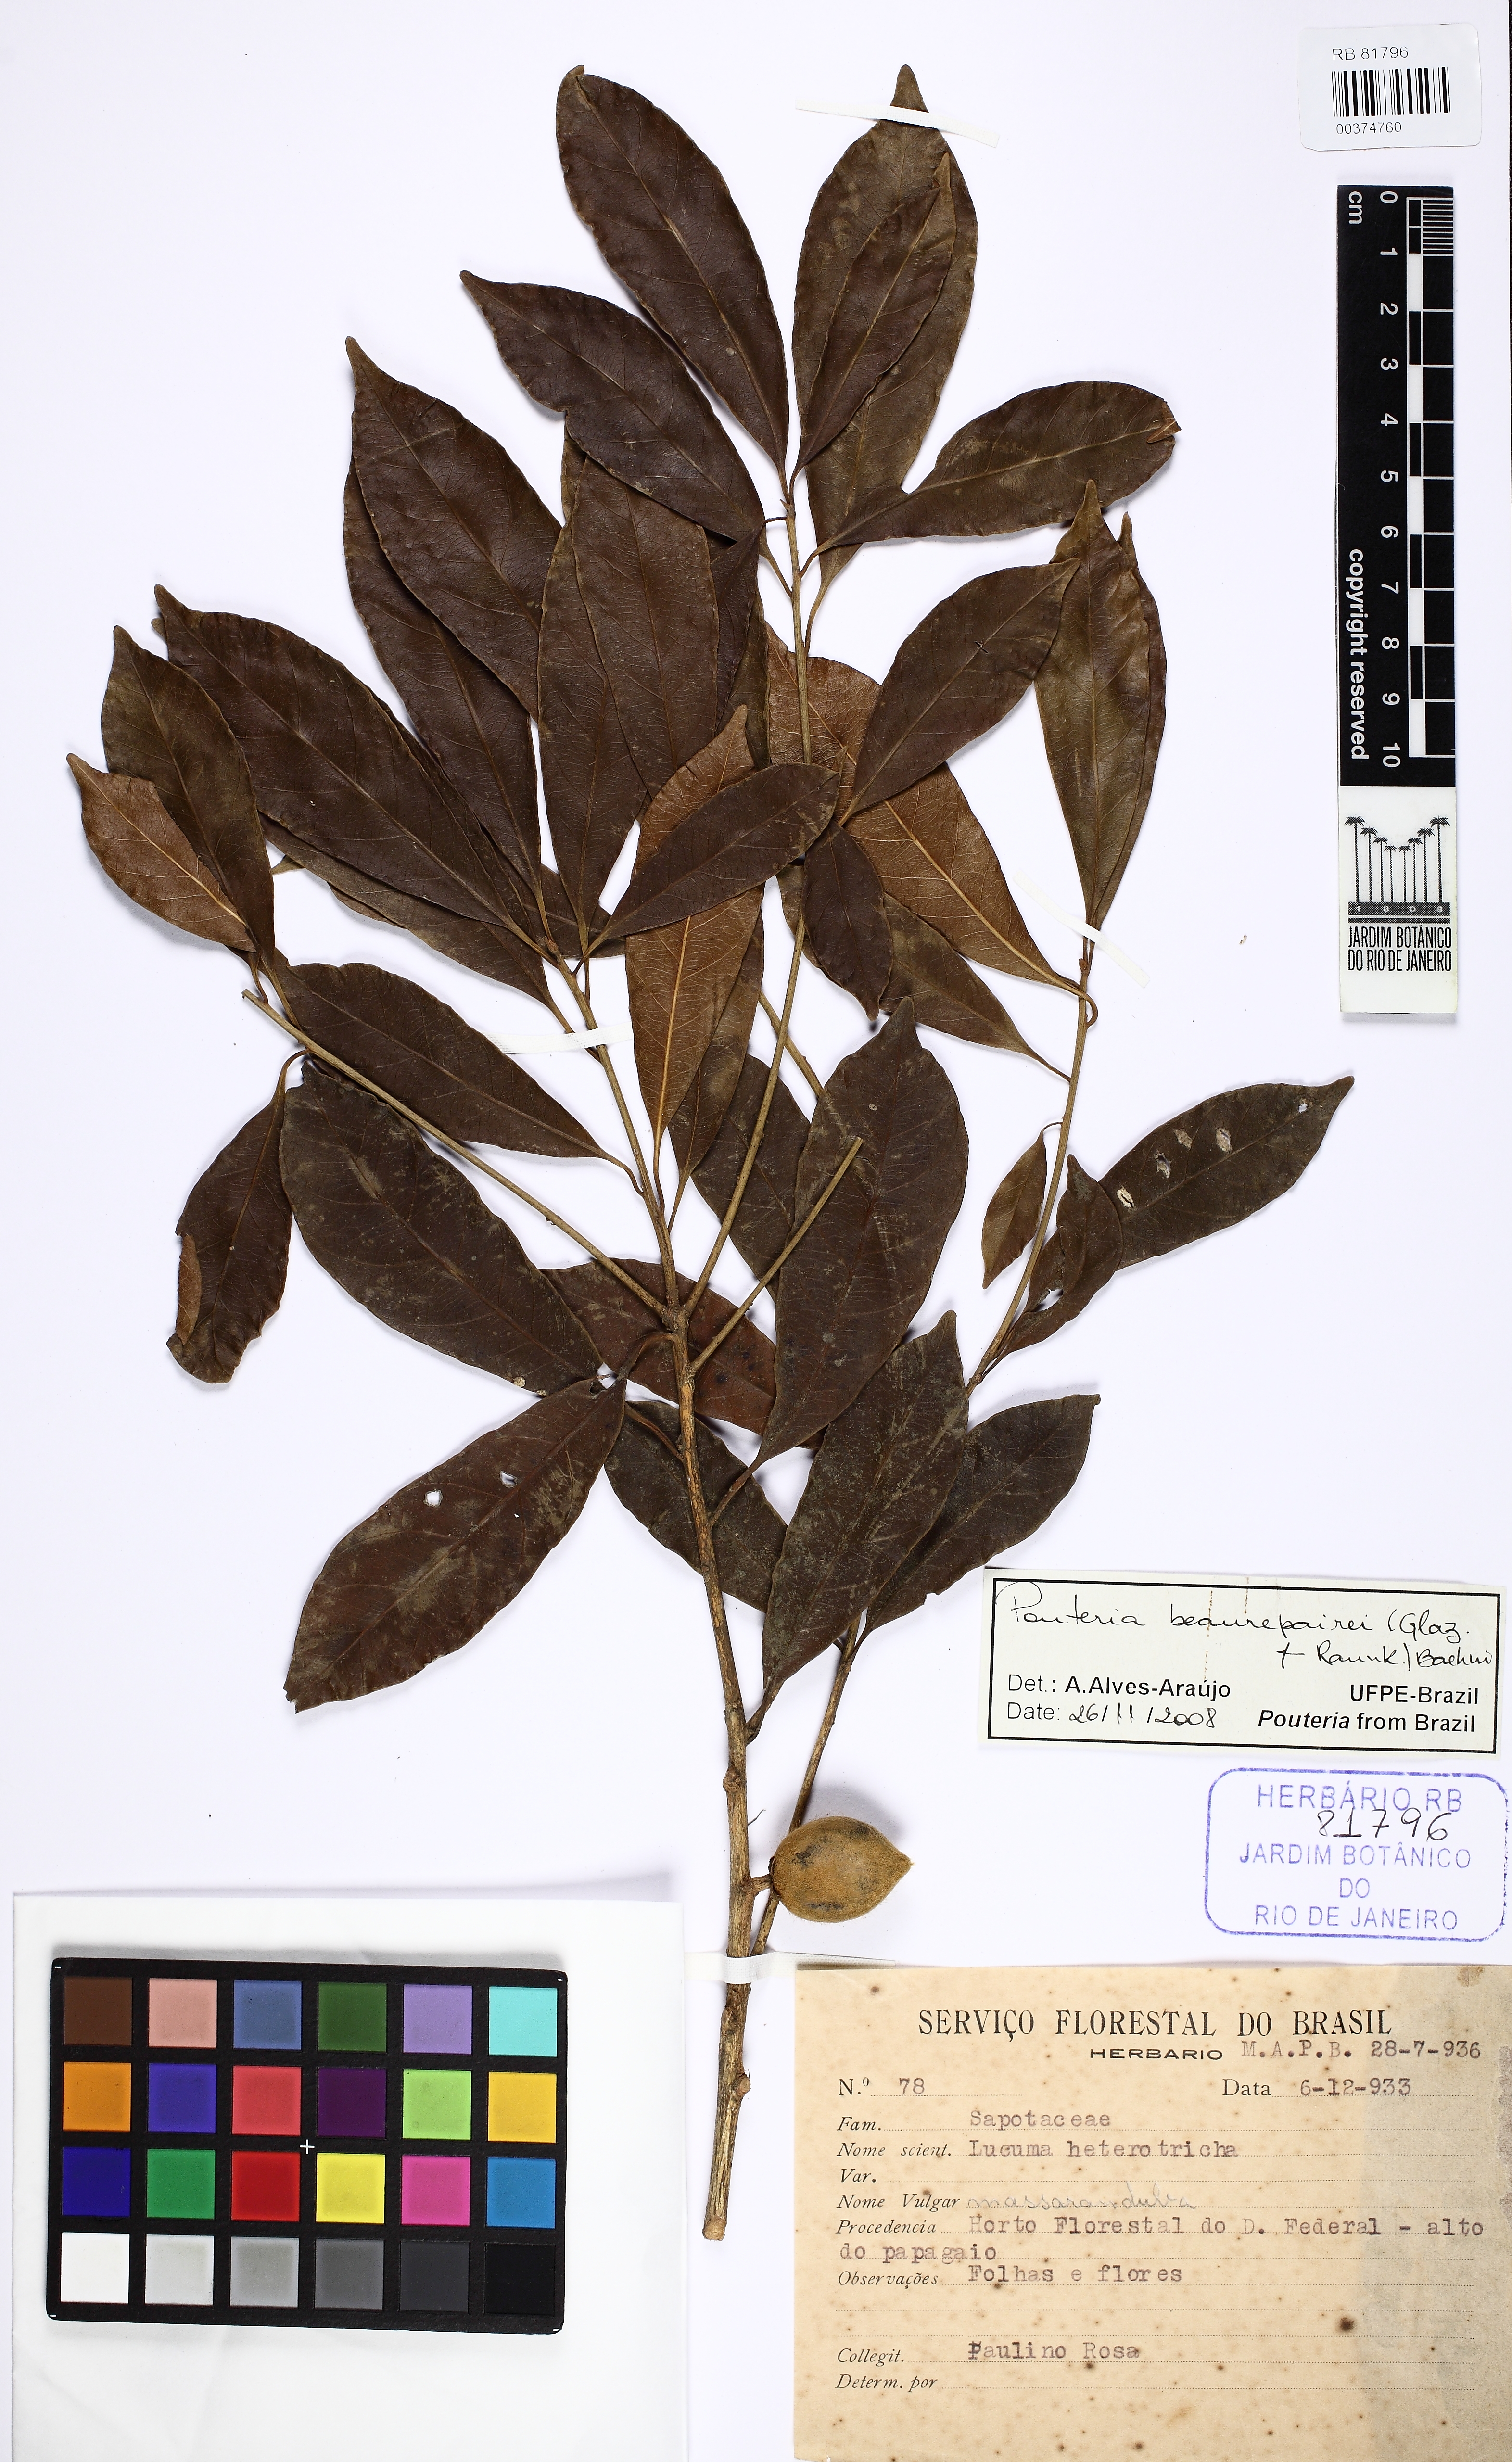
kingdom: Plantae
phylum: Tracheophyta
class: Magnoliopsida
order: Ericales
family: Sapotaceae
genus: Pouteria
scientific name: Pouteria beaurepairei
